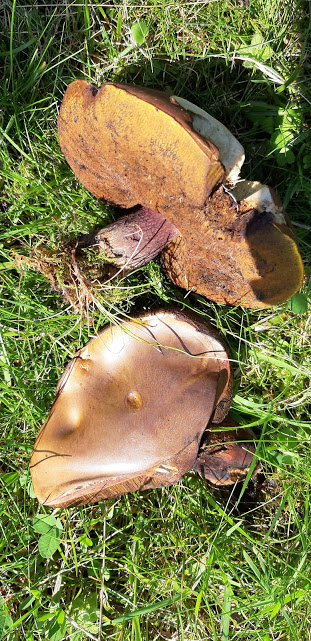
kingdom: Fungi
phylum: Basidiomycota
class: Agaricomycetes
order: Boletales
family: Boletaceae
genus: Suillellus
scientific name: Suillellus luridus
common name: netstokket indigorørhat
